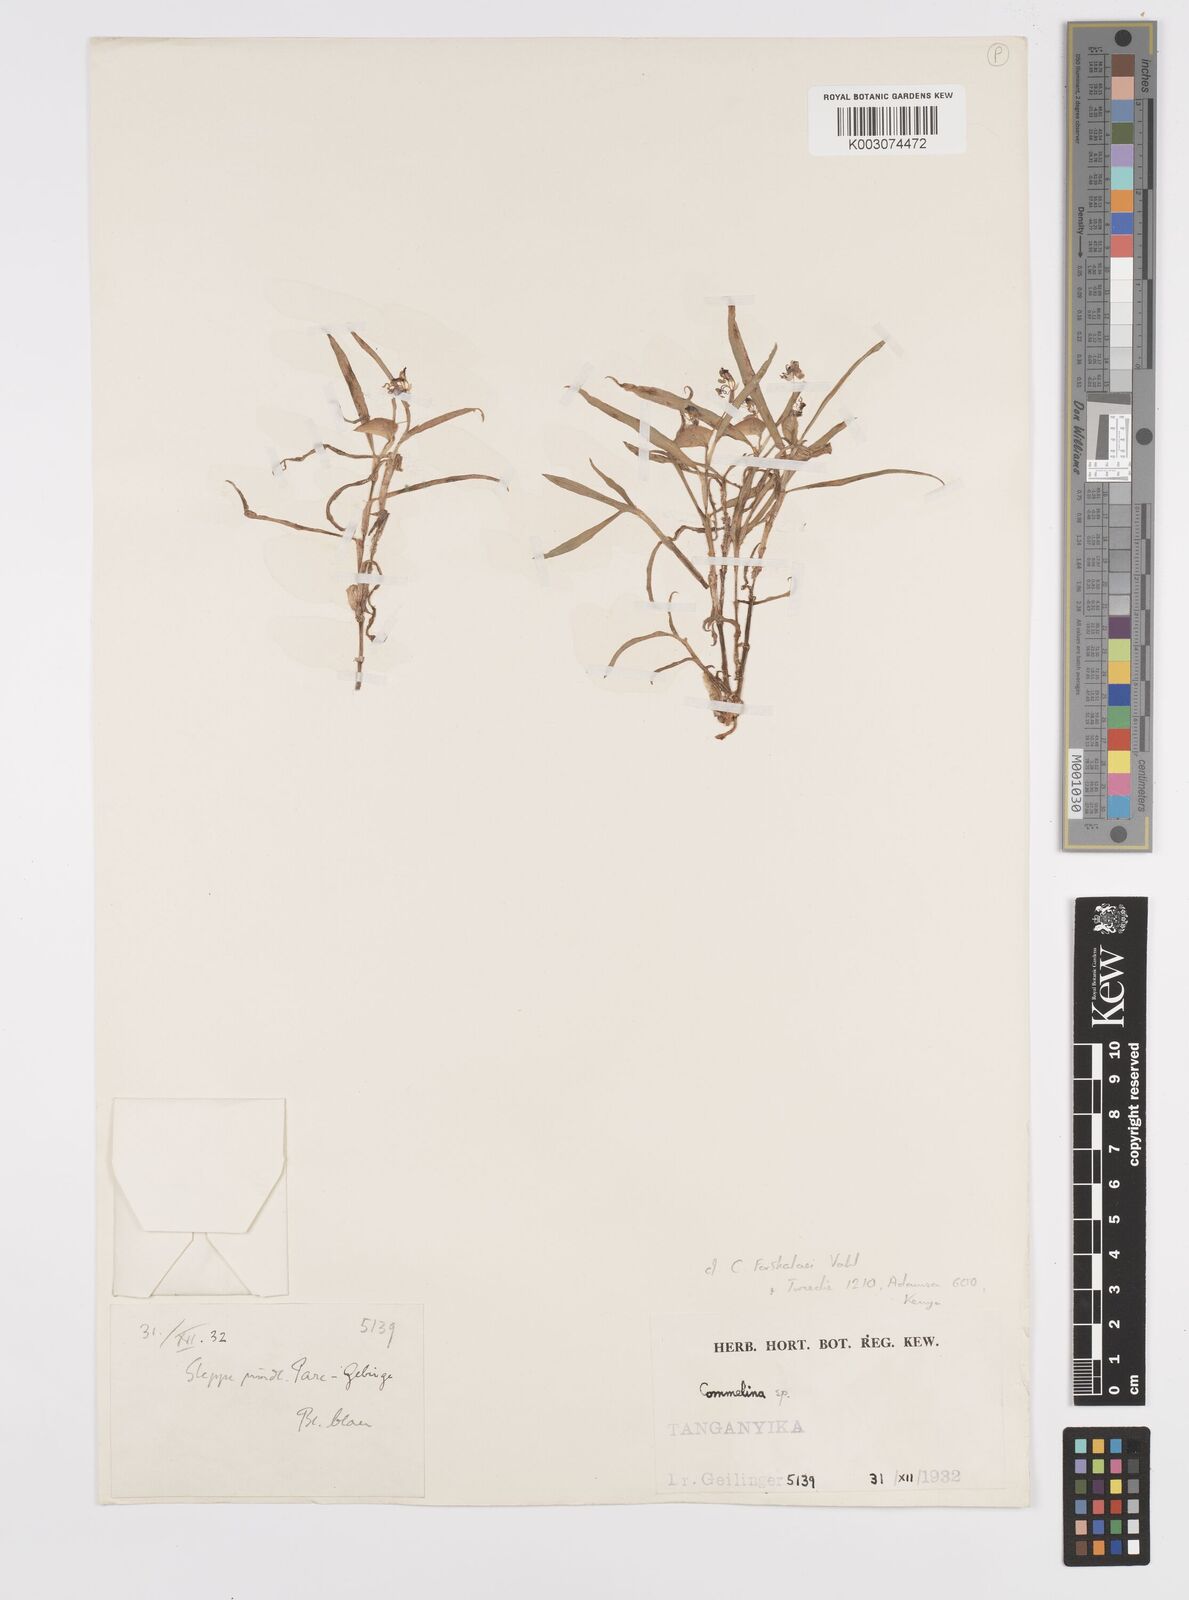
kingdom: Plantae
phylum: Tracheophyta
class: Liliopsida
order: Commelinales
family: Commelinaceae
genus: Commelina
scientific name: Commelina forskaolii
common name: Rat's ear
